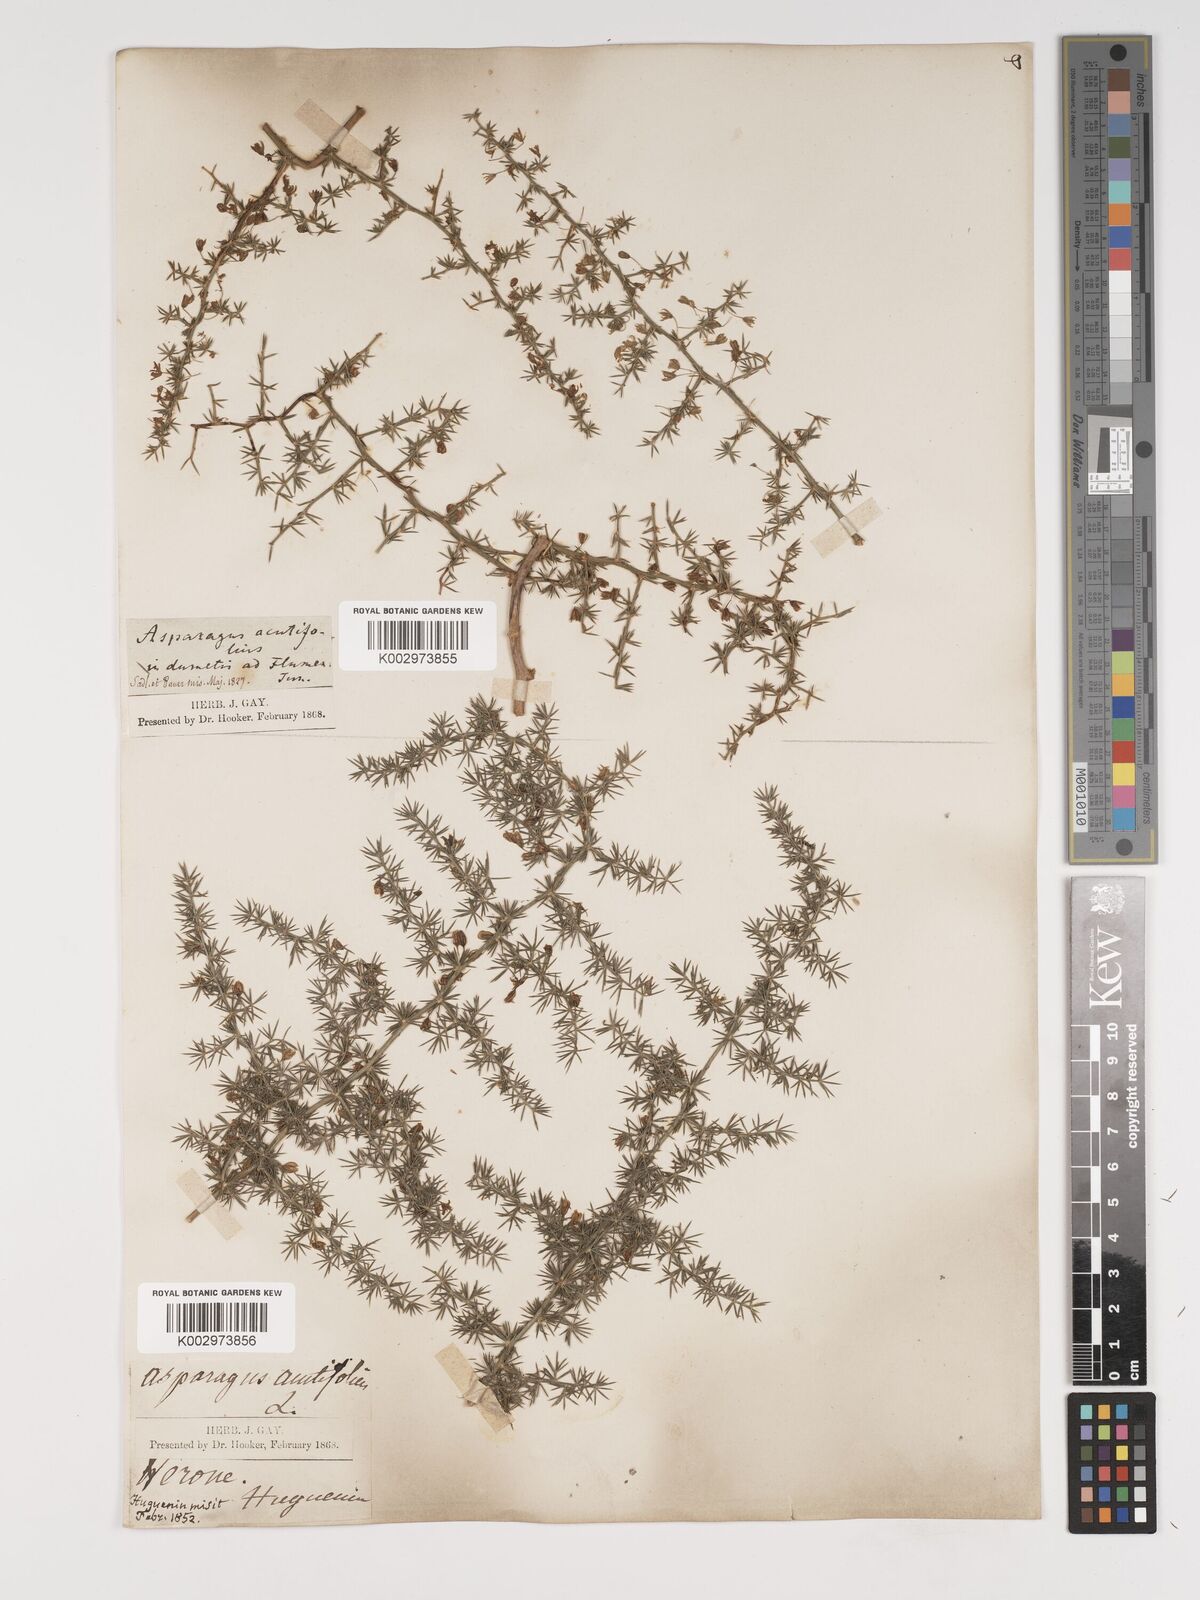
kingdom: Plantae
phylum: Tracheophyta
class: Liliopsida
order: Asparagales
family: Asparagaceae
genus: Asparagus
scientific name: Asparagus acutifolius
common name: Wild asparagus
